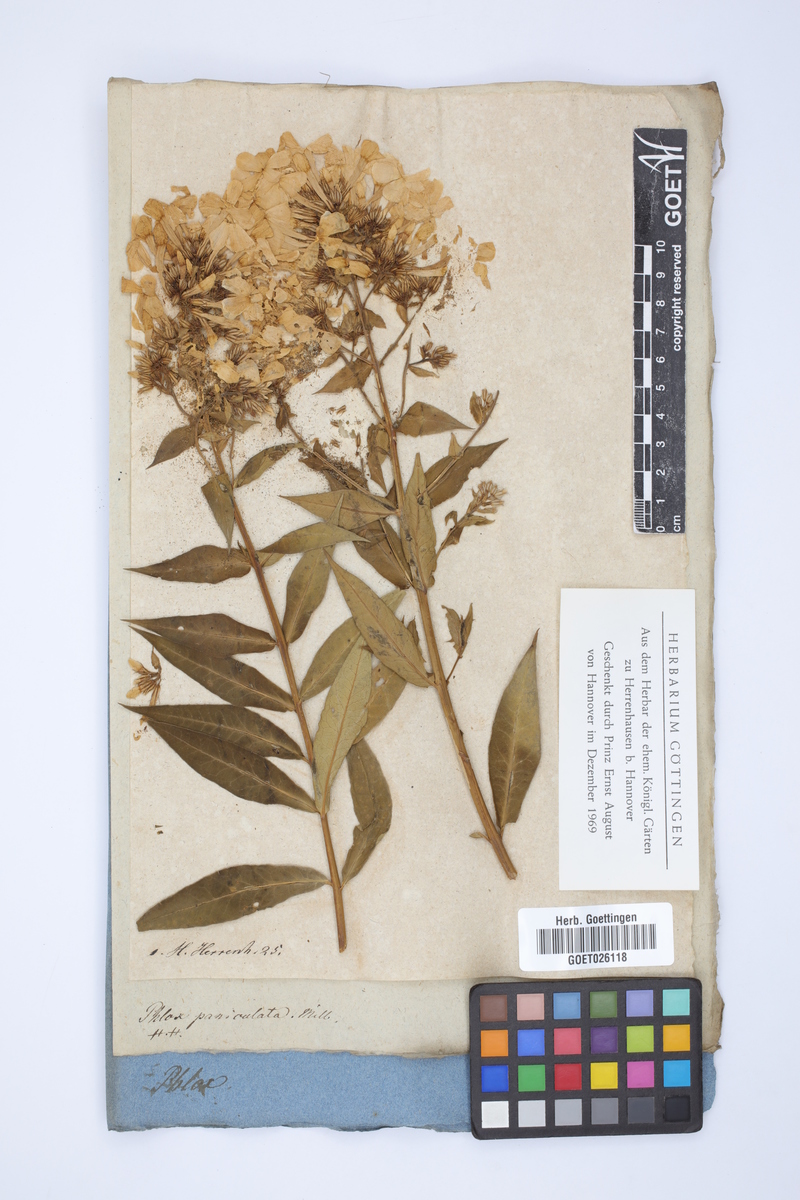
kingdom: Plantae
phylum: Tracheophyta
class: Magnoliopsida
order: Ericales
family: Polemoniaceae
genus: Phlox
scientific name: Phlox paniculata
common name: Fall phlox
